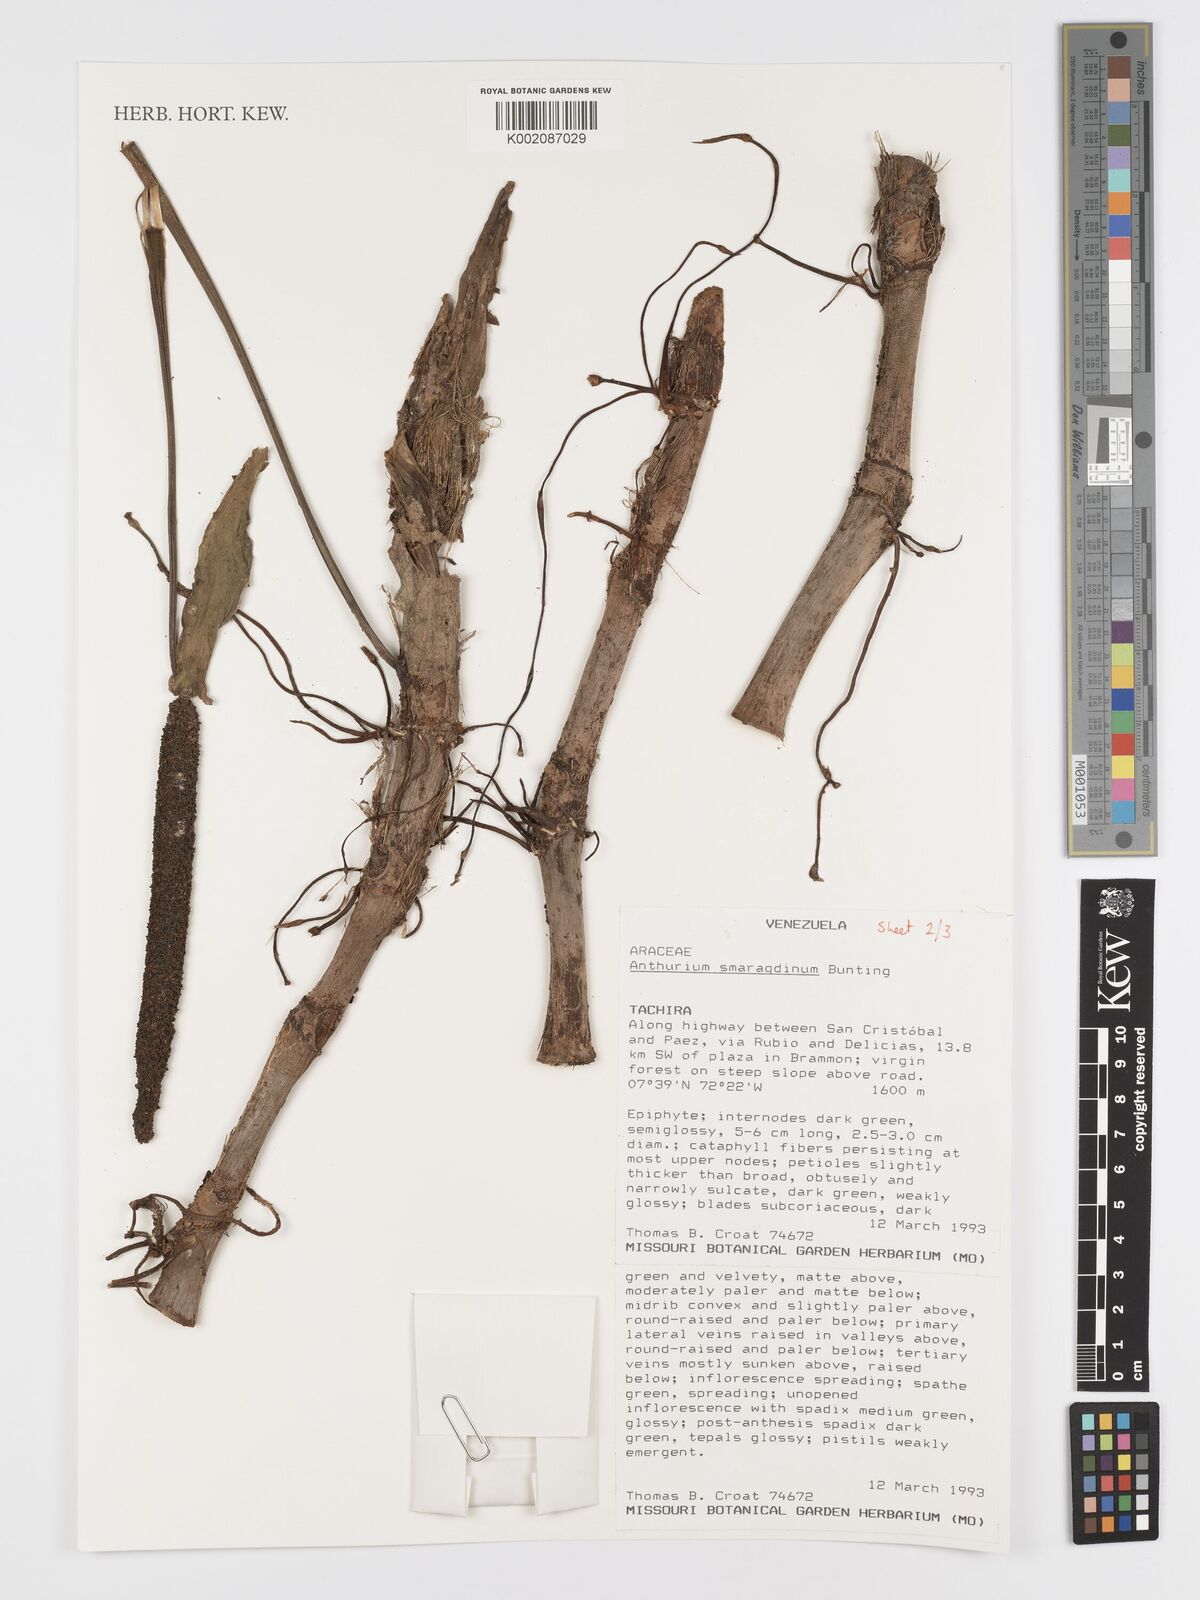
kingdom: Plantae
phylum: Tracheophyta
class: Liliopsida
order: Alismatales
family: Araceae
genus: Anthurium
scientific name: Anthurium smaragdinum
